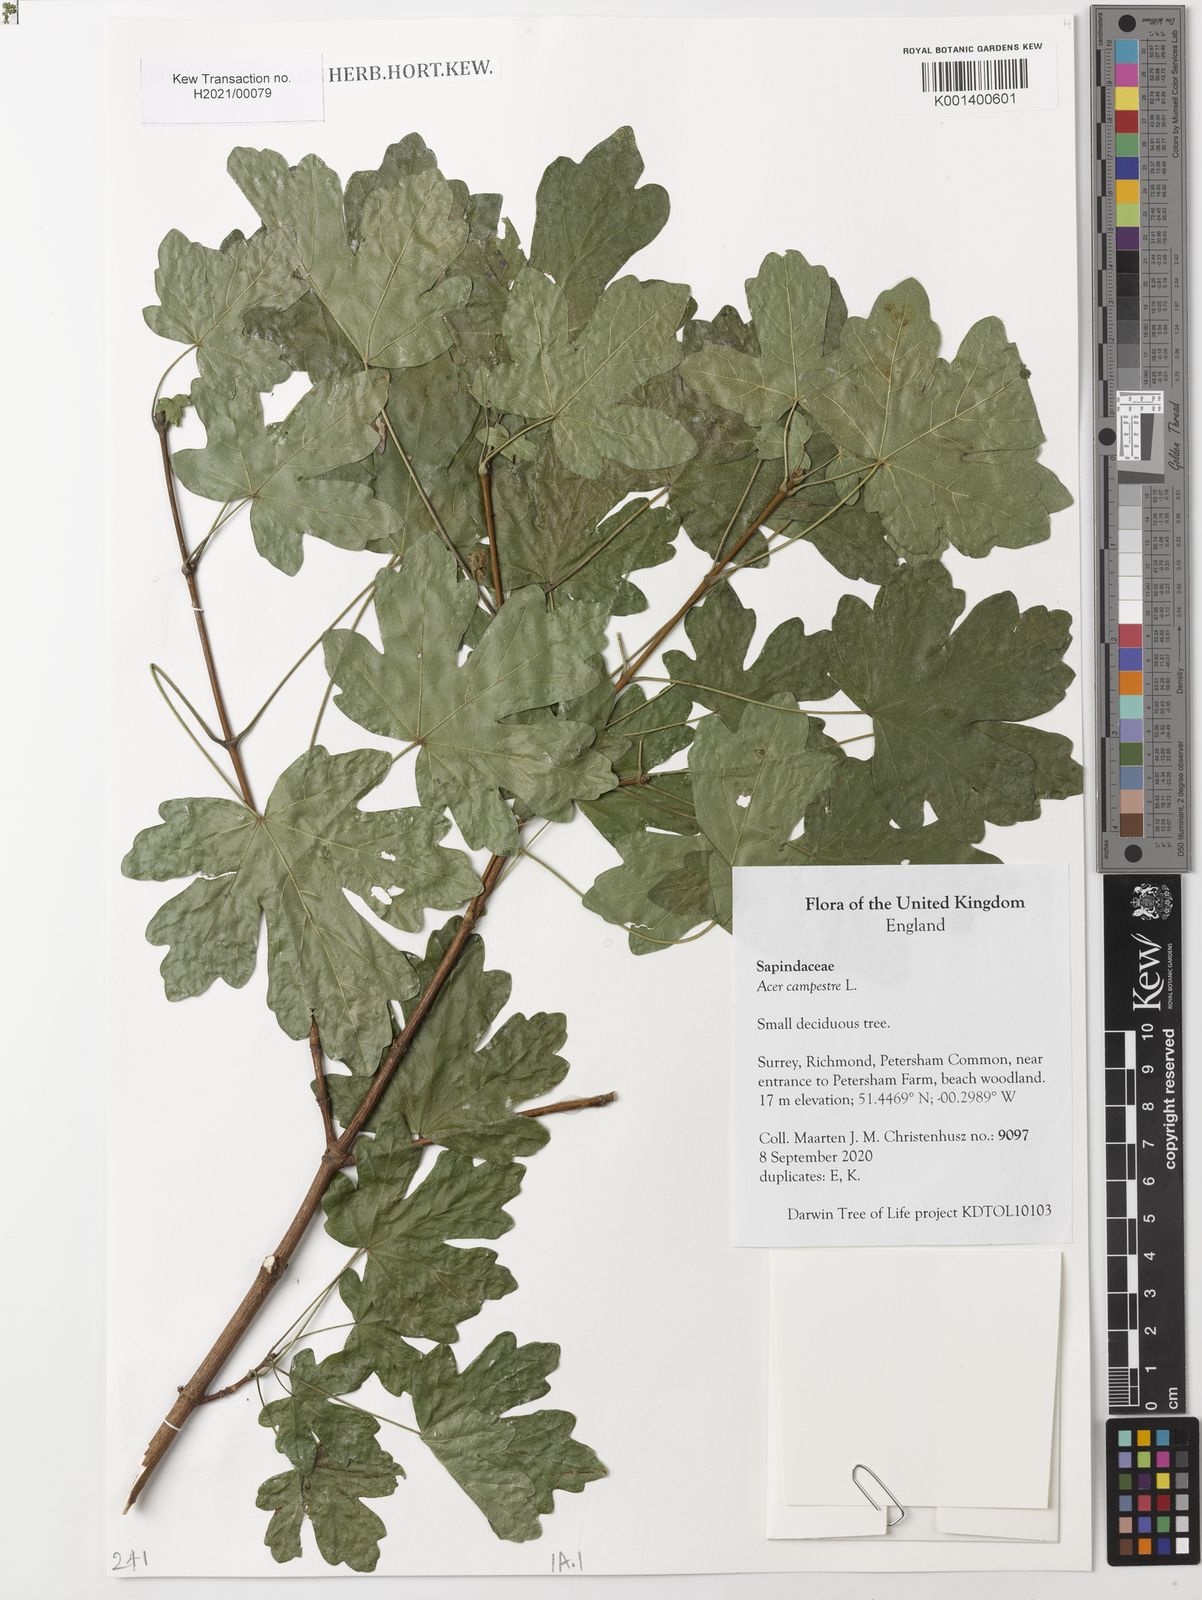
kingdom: Plantae
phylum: Tracheophyta
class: Magnoliopsida
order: Sapindales
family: Sapindaceae
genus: Acer
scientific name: Acer campestre
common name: Field maple
